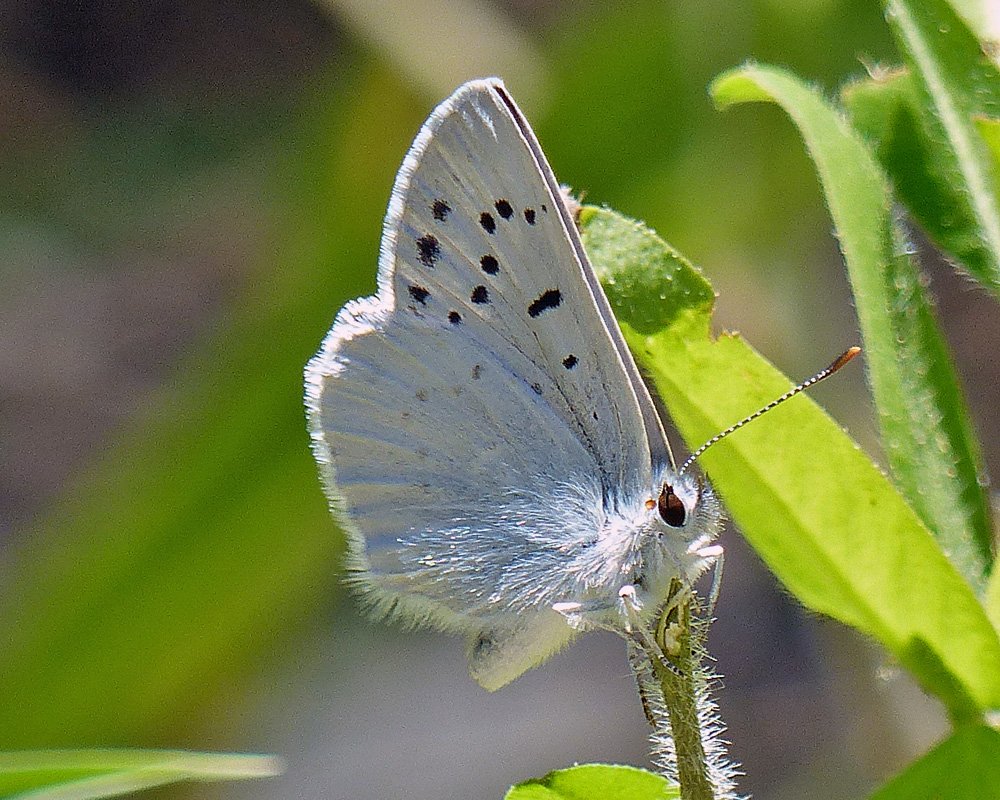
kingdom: Animalia
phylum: Arthropoda
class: Insecta
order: Lepidoptera
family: Lycaenidae
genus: Lycaena
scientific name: Lycaena heteronea
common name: Blue Copper
